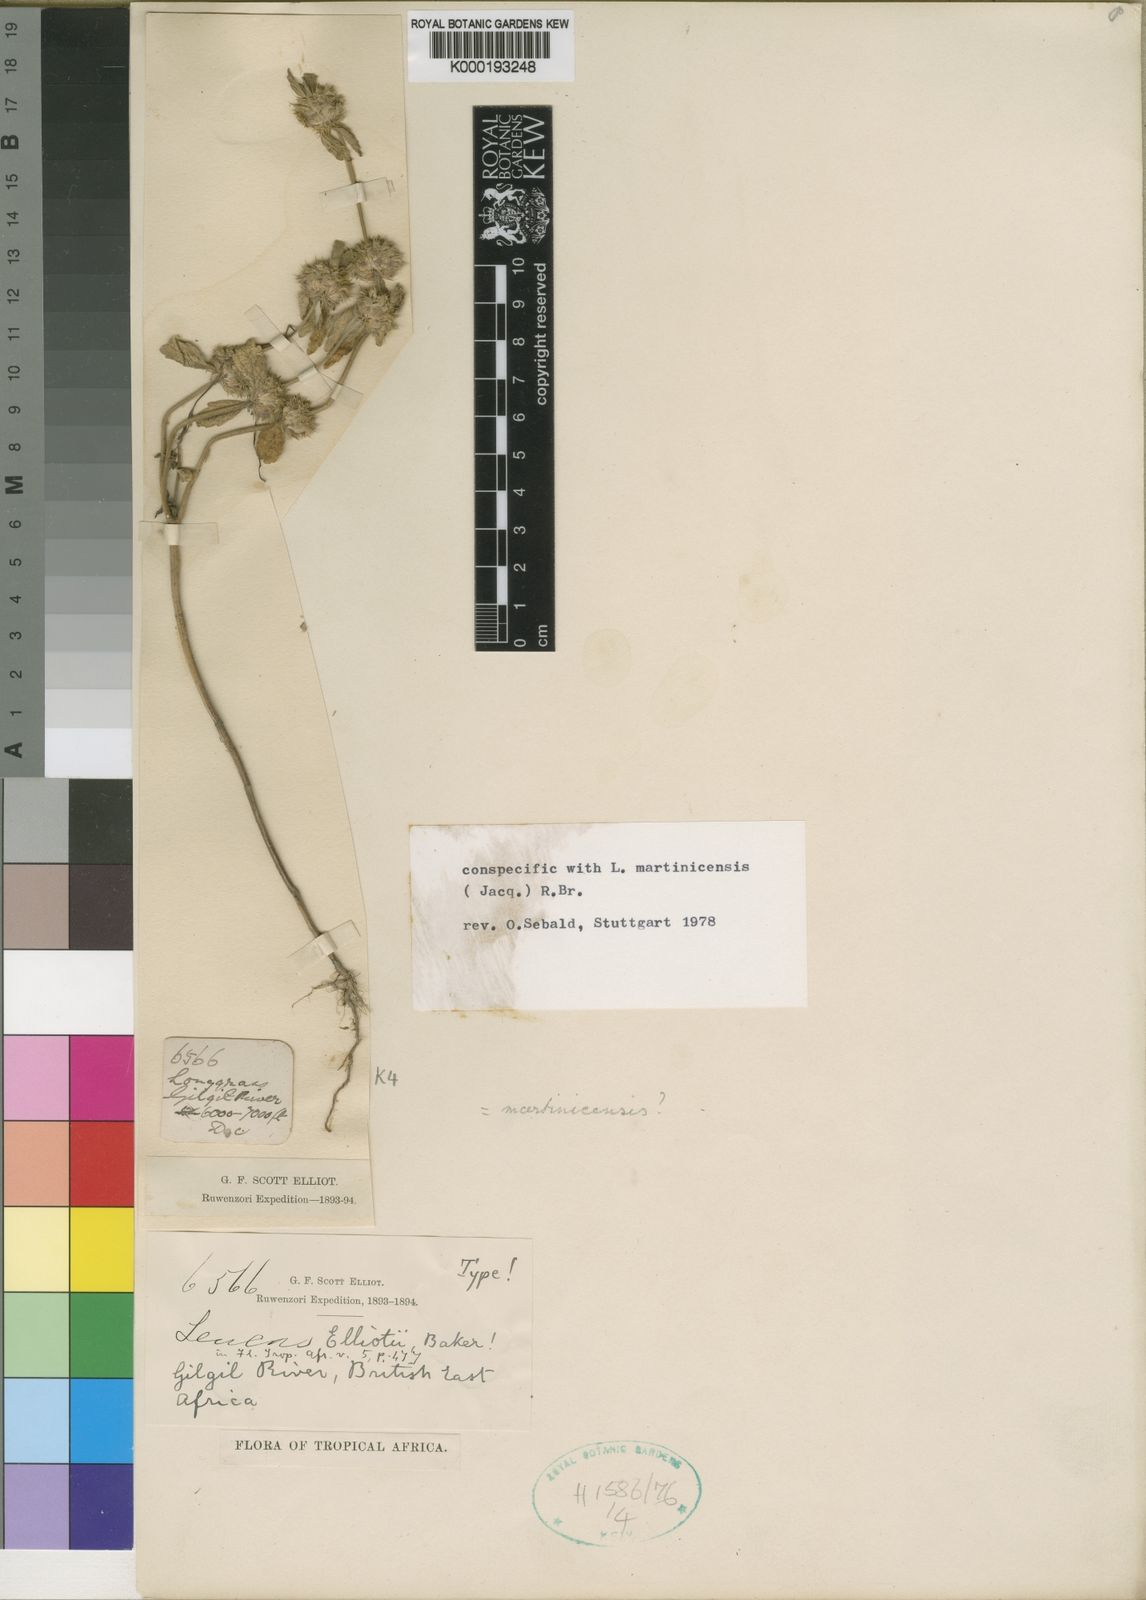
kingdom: Plantae
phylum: Tracheophyta
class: Magnoliopsida
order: Lamiales
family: Lamiaceae
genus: Leucas
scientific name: Leucas martinicensis
